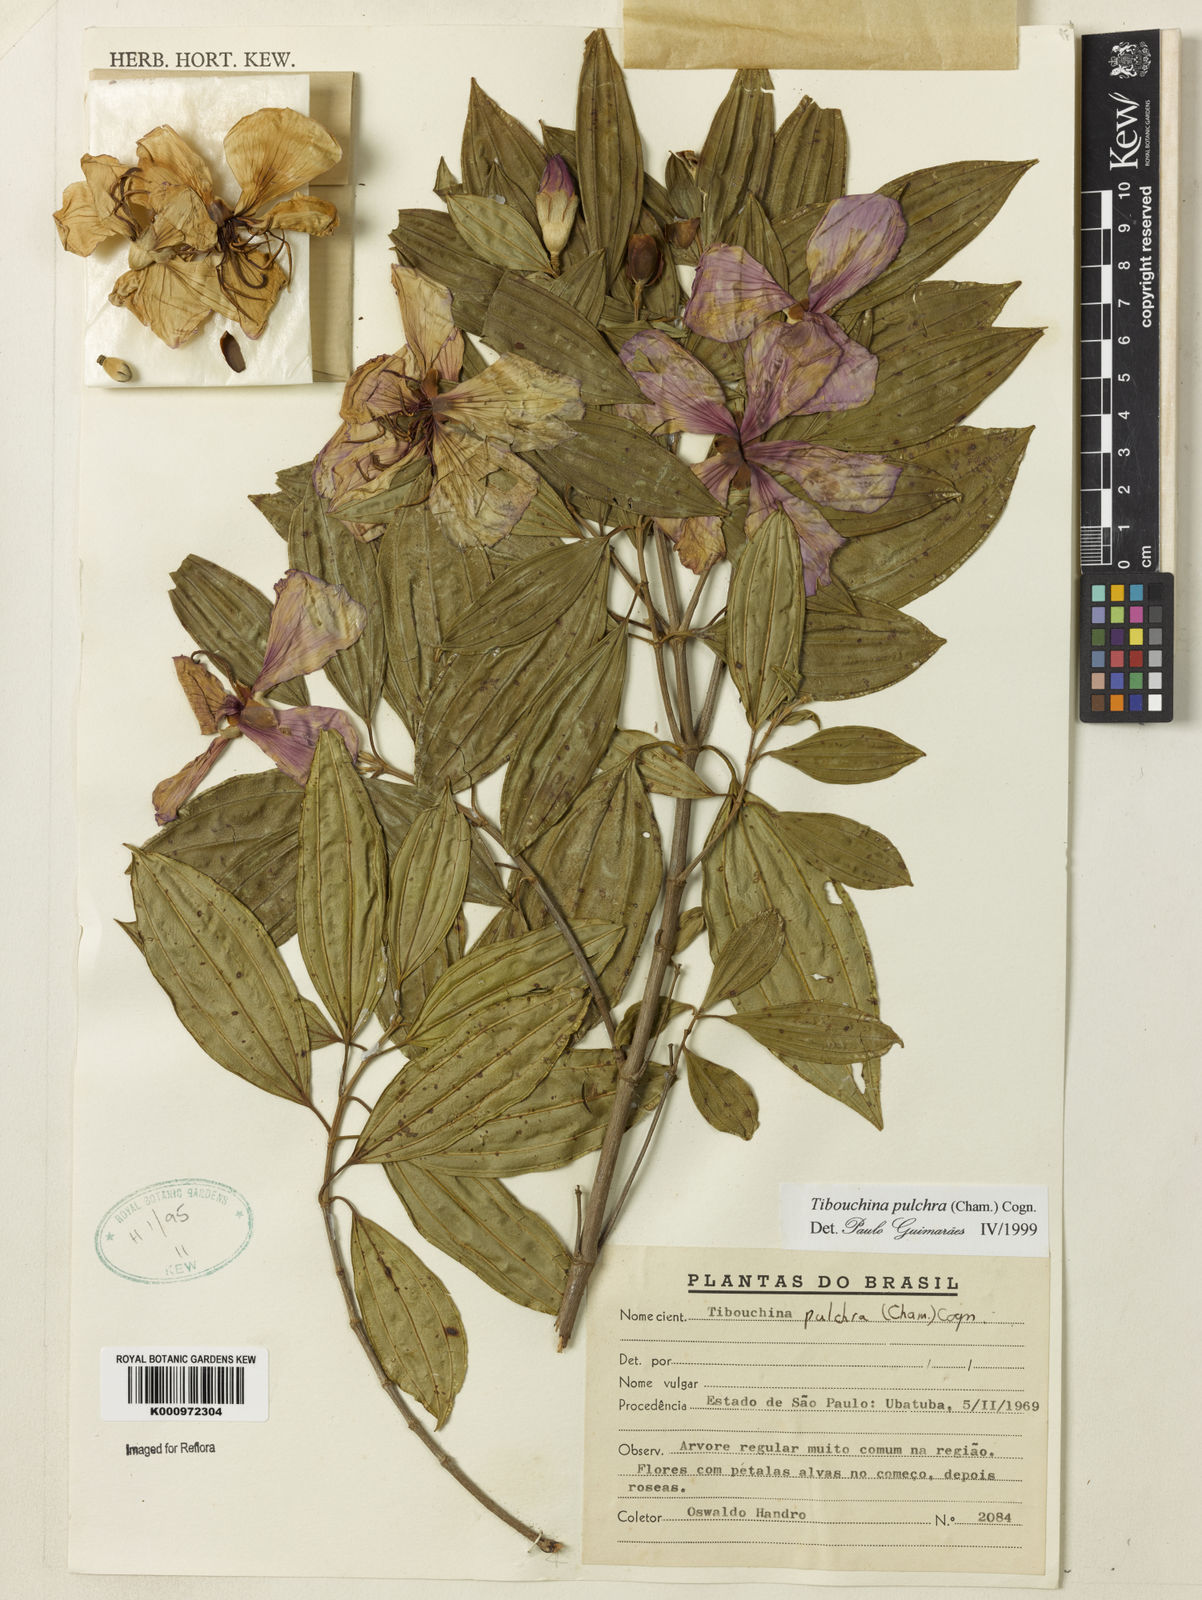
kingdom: Plantae
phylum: Tracheophyta
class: Magnoliopsida
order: Myrtales
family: Melastomataceae
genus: Pleroma
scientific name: Pleroma raddianum
